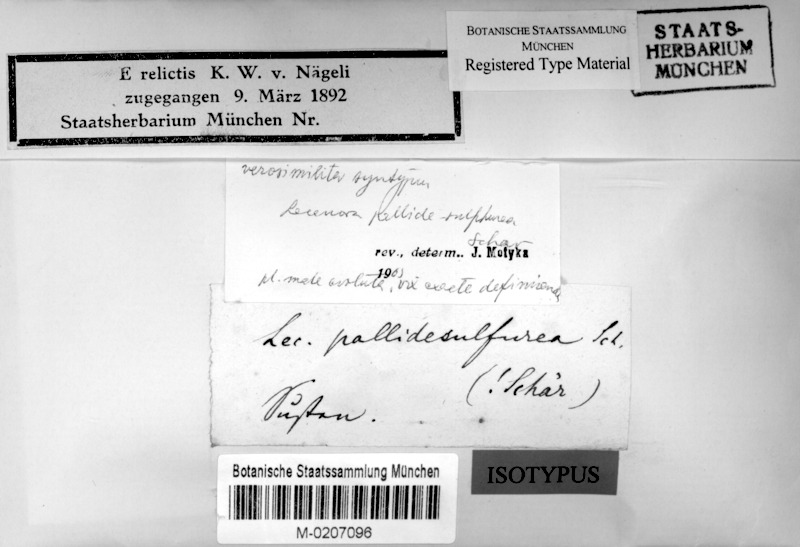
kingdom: Fungi
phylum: Ascomycota
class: Lecanoromycetes
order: Lecanorales
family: Lecanoraceae
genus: Lecanora
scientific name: Lecanora
